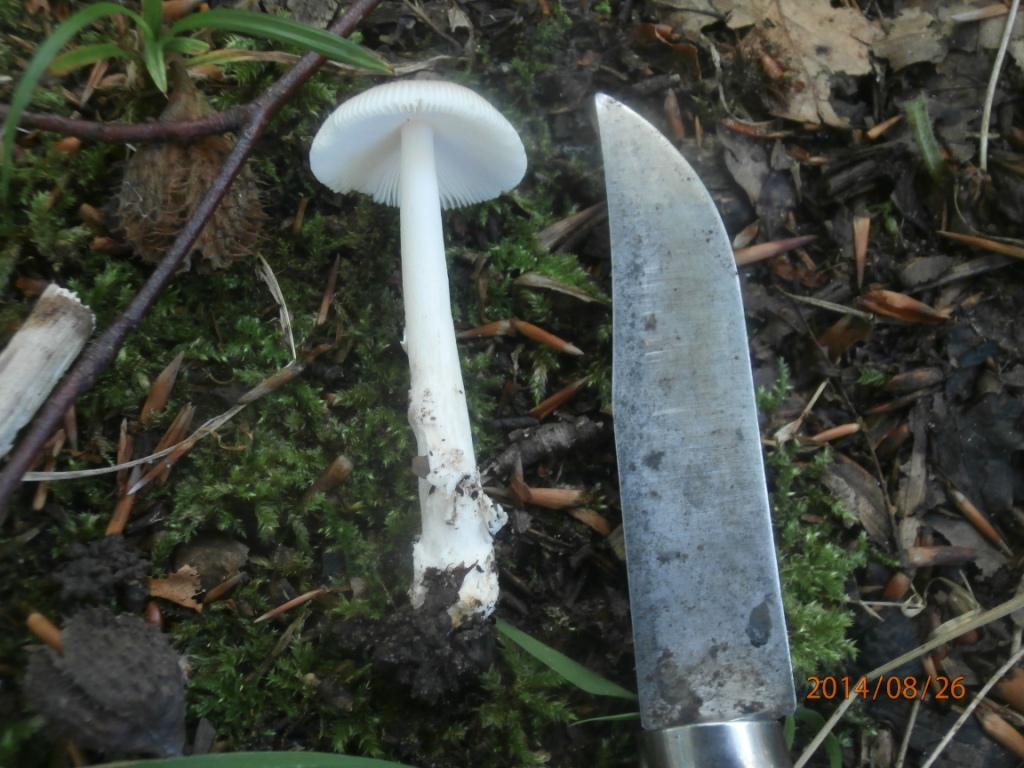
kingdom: Fungi
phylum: Basidiomycota
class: Agaricomycetes
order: Agaricales
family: Amanitaceae
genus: Amanita
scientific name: Amanita
